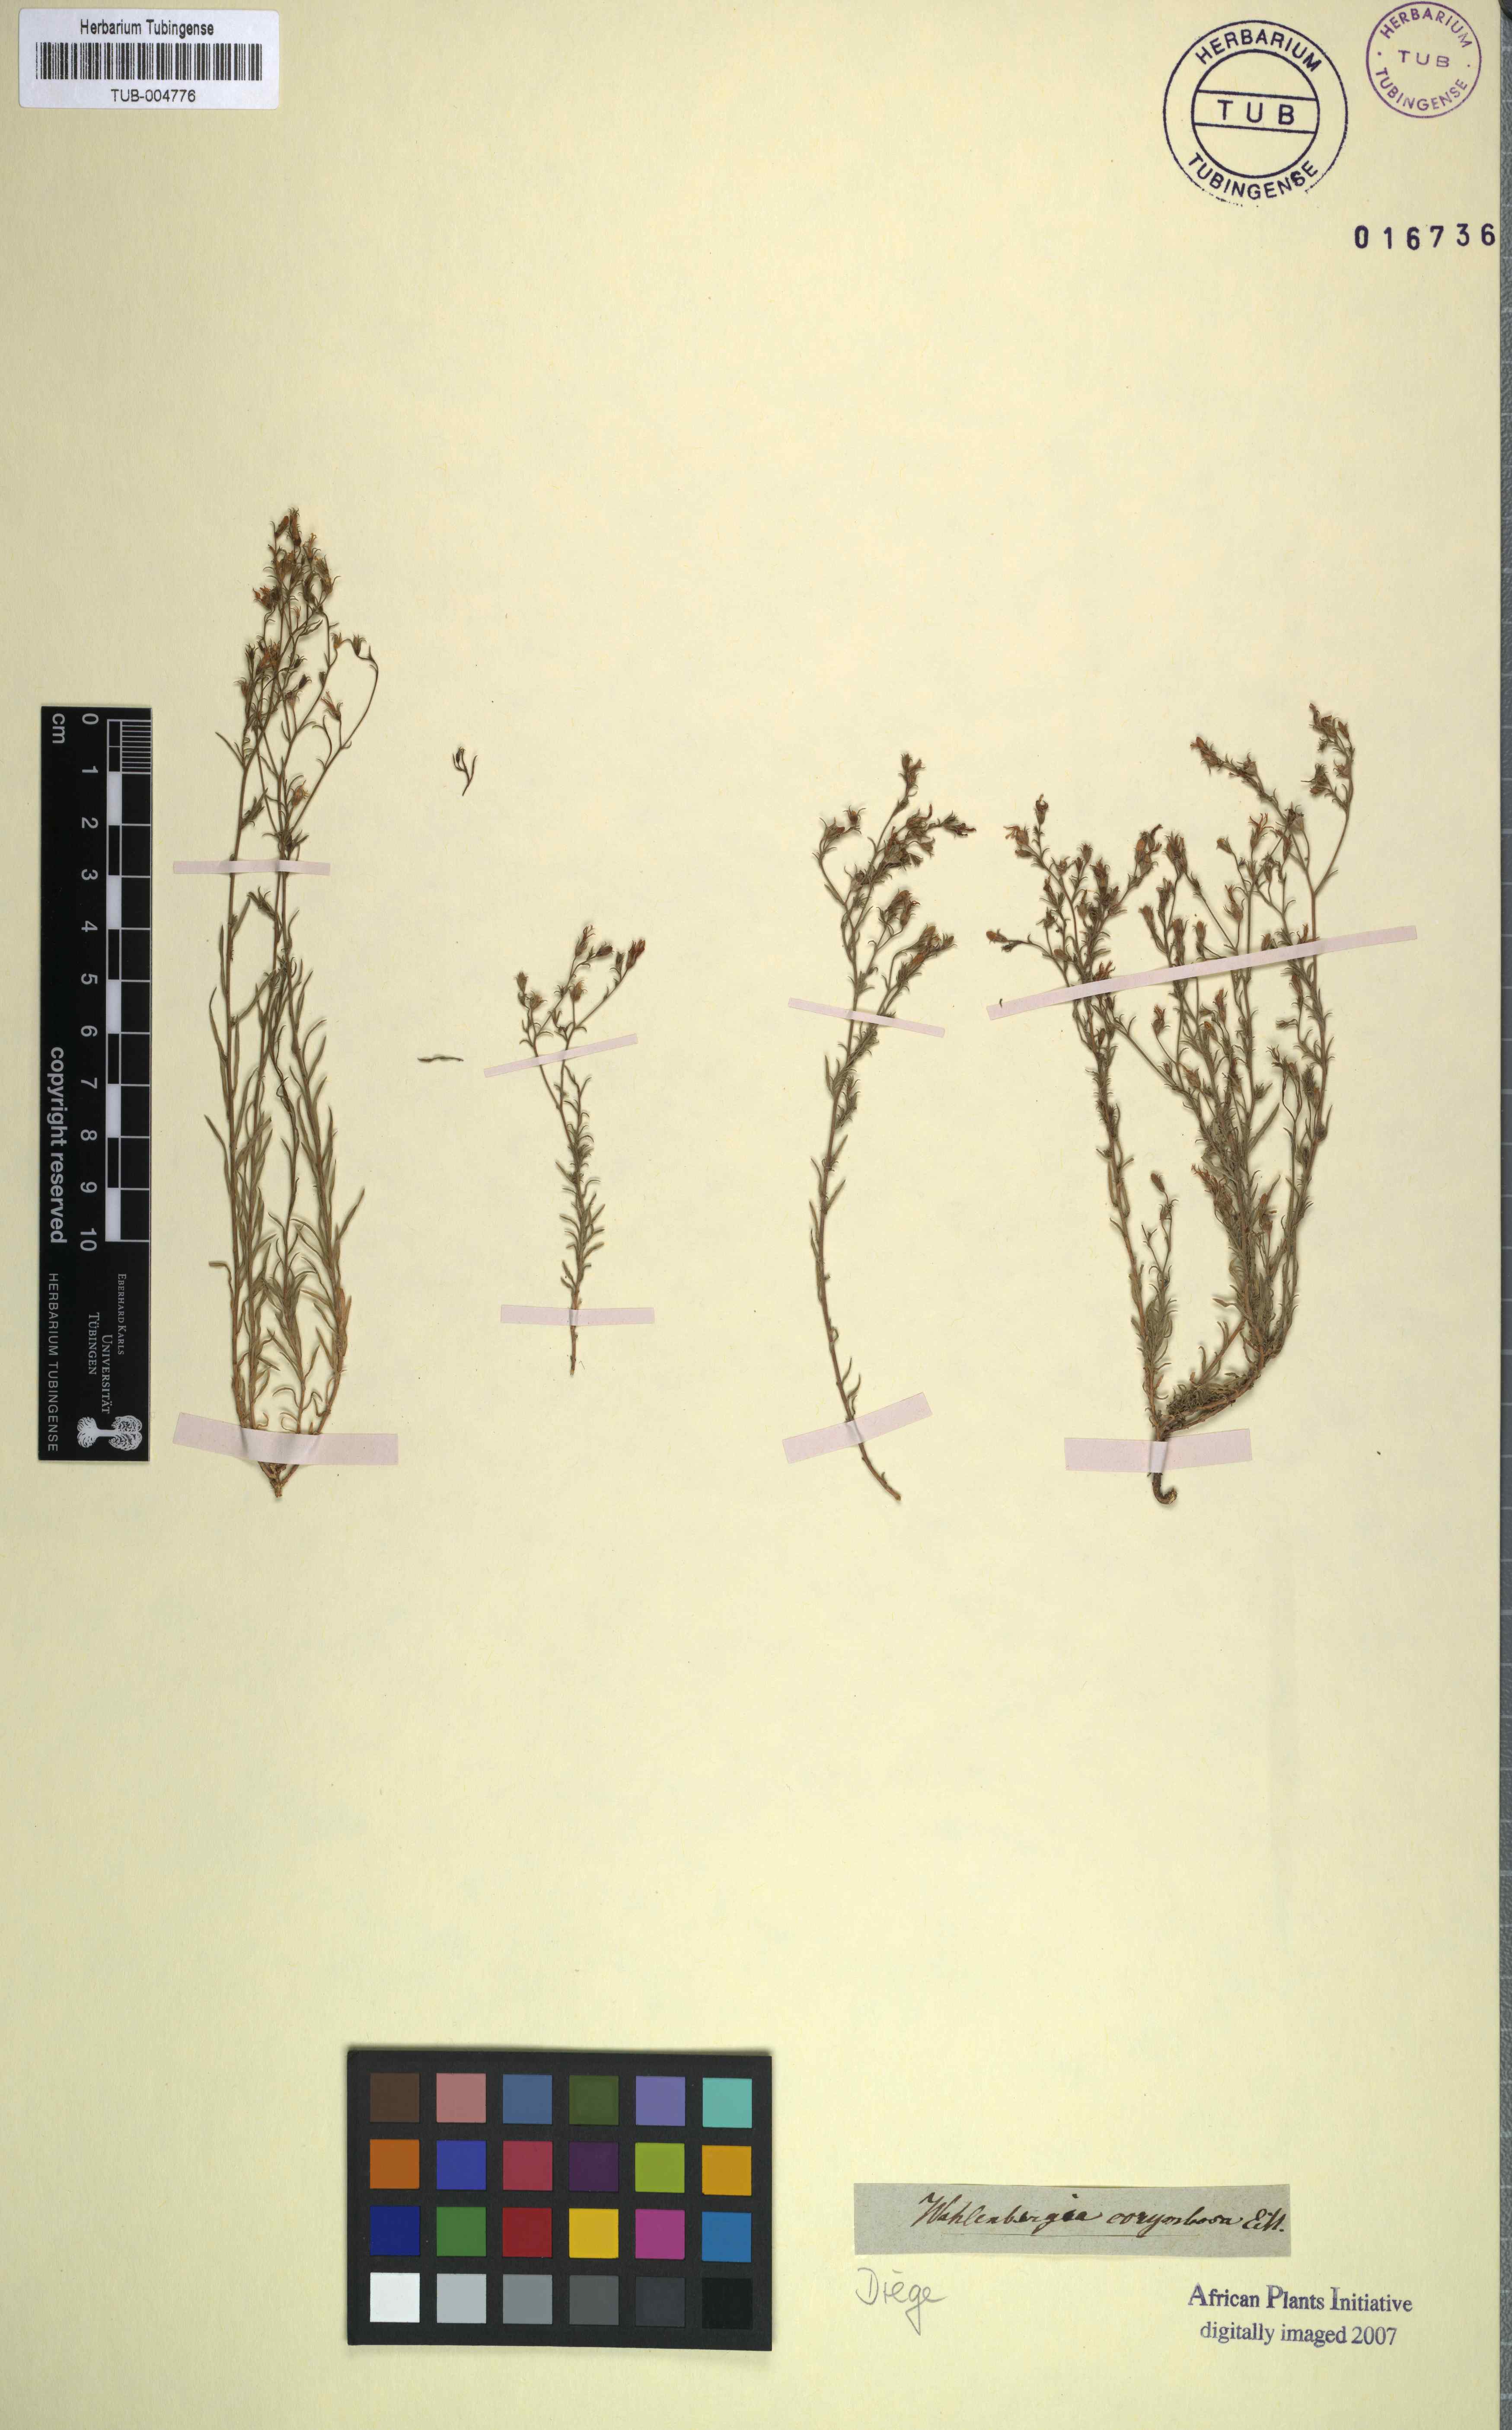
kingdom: Plantae
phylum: Tracheophyta
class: Magnoliopsida
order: Asterales
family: Campanulaceae
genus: Wahlenbergia
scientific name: Wahlenbergia thulinii
